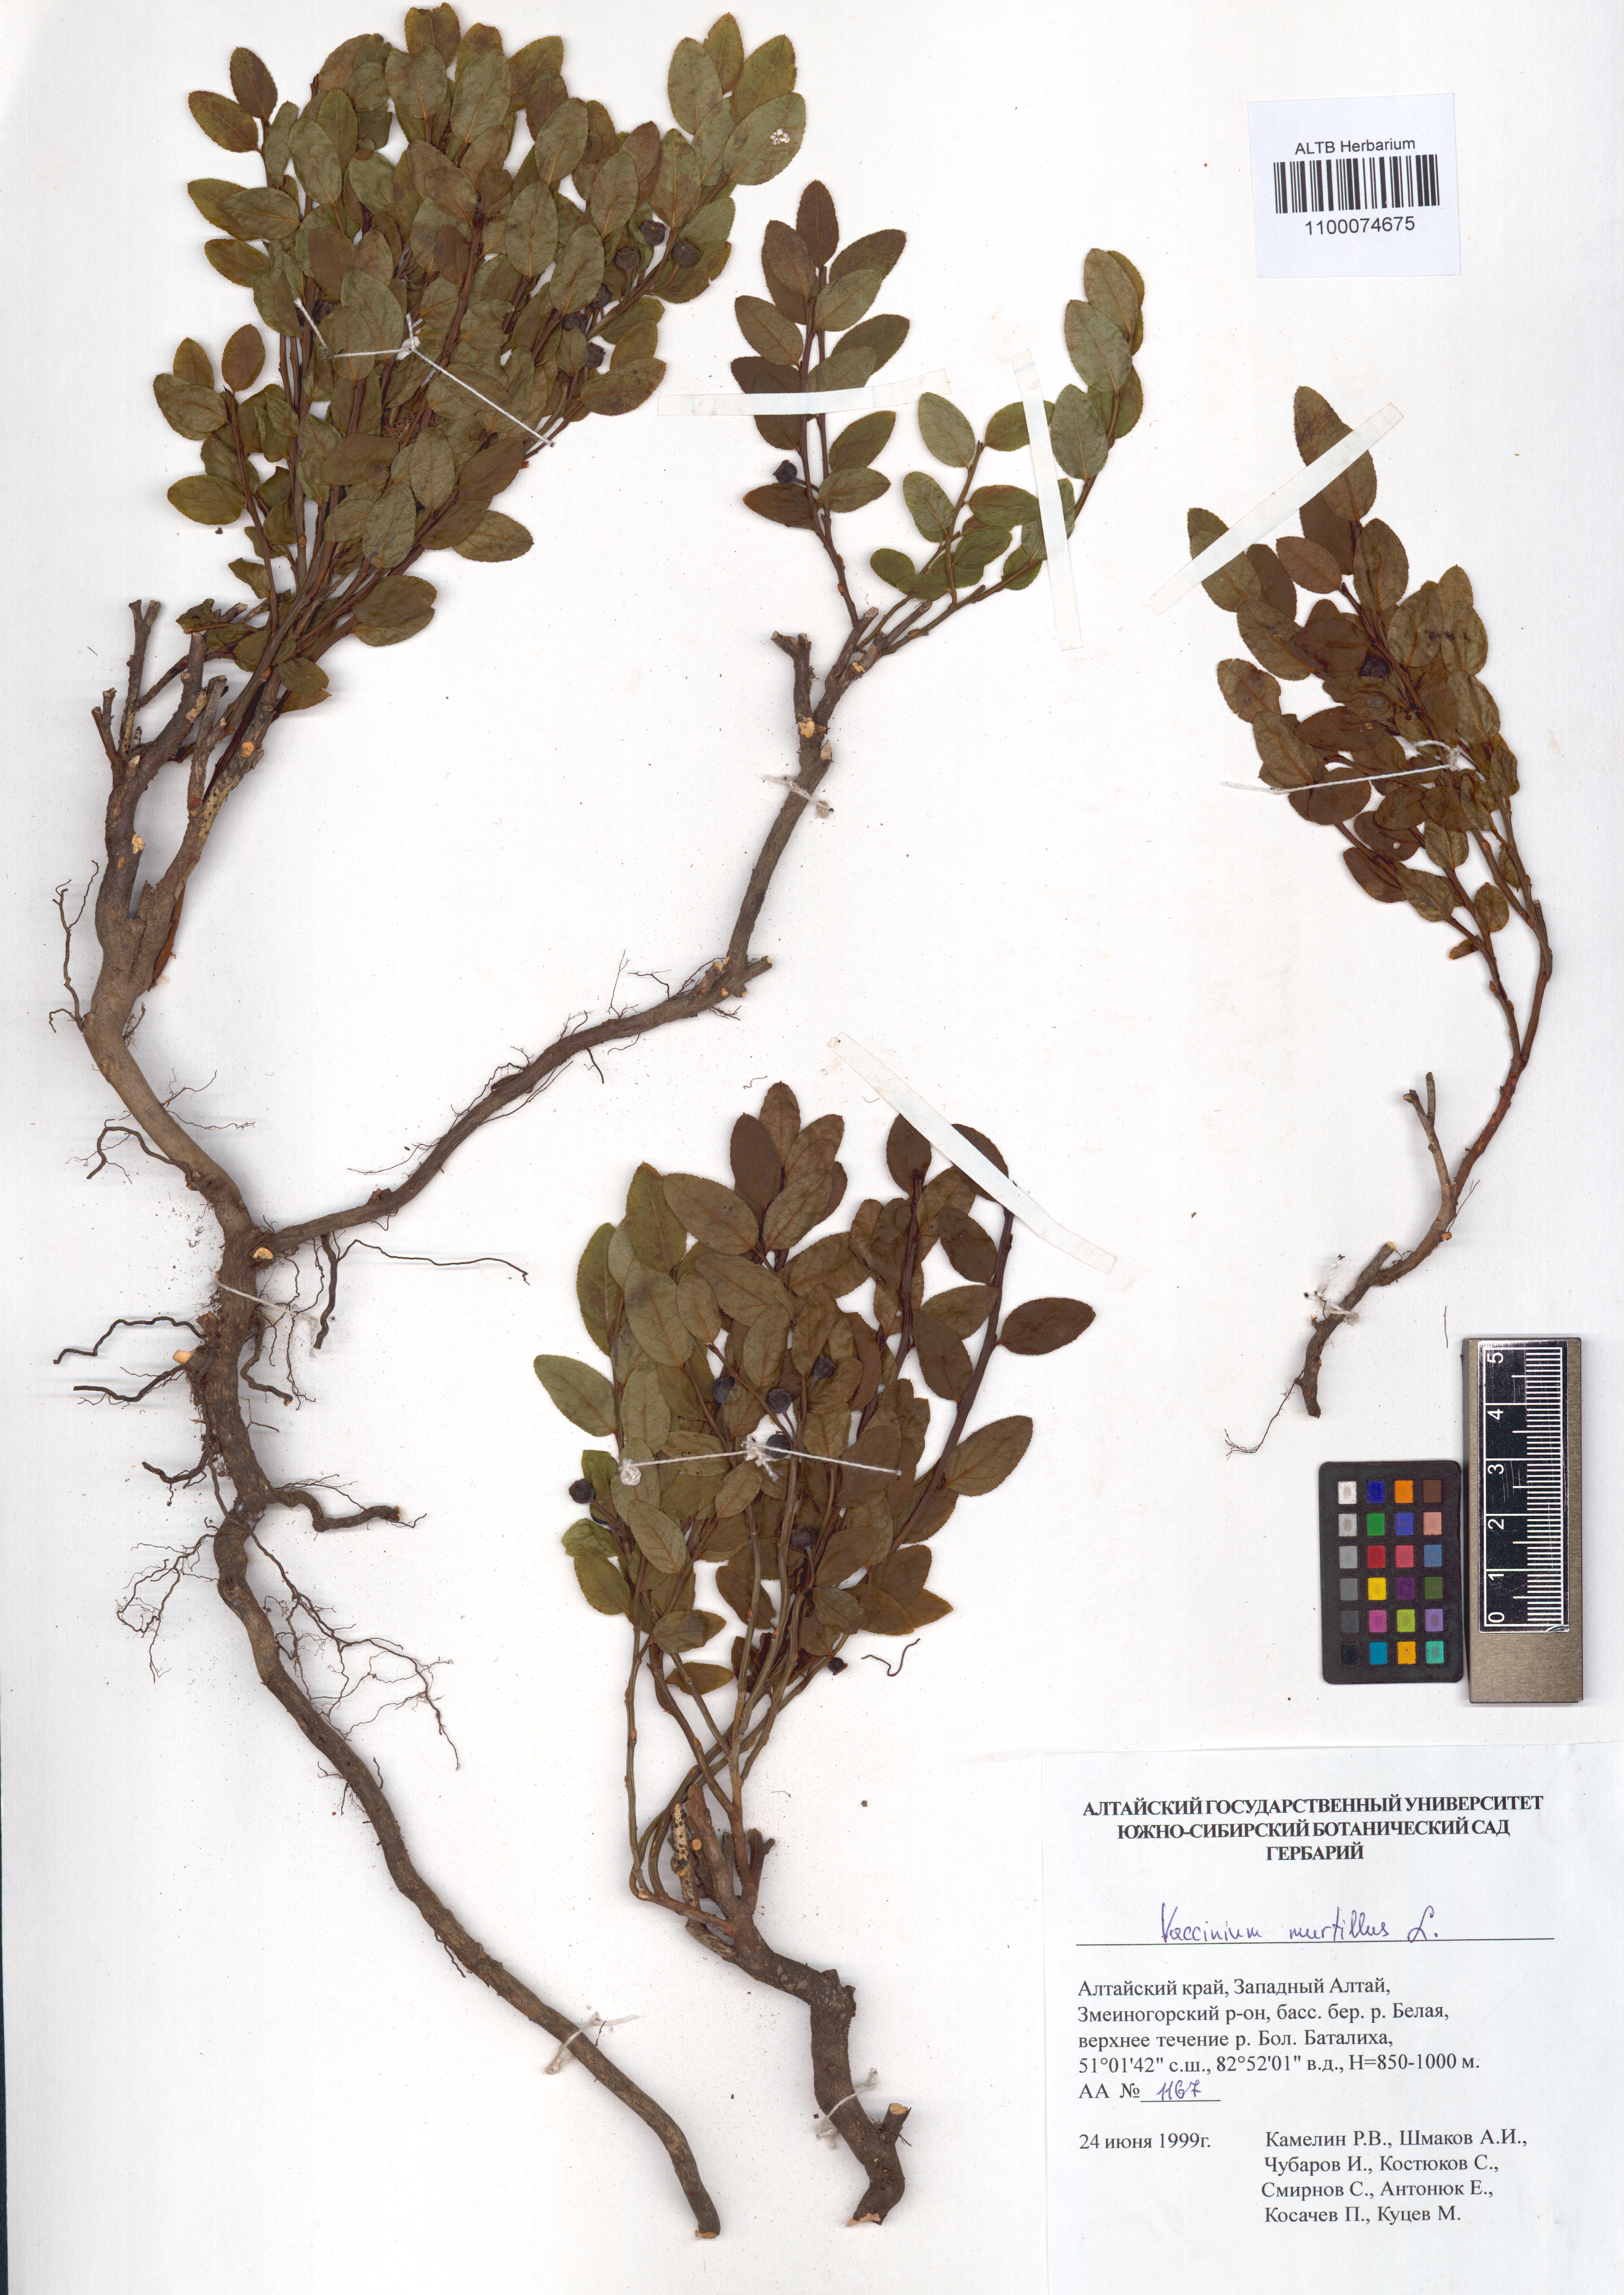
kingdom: Plantae
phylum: Tracheophyta
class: Magnoliopsida
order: Ericales
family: Ericaceae
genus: Vaccinium
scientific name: Vaccinium myrtillus
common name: Bilberry
